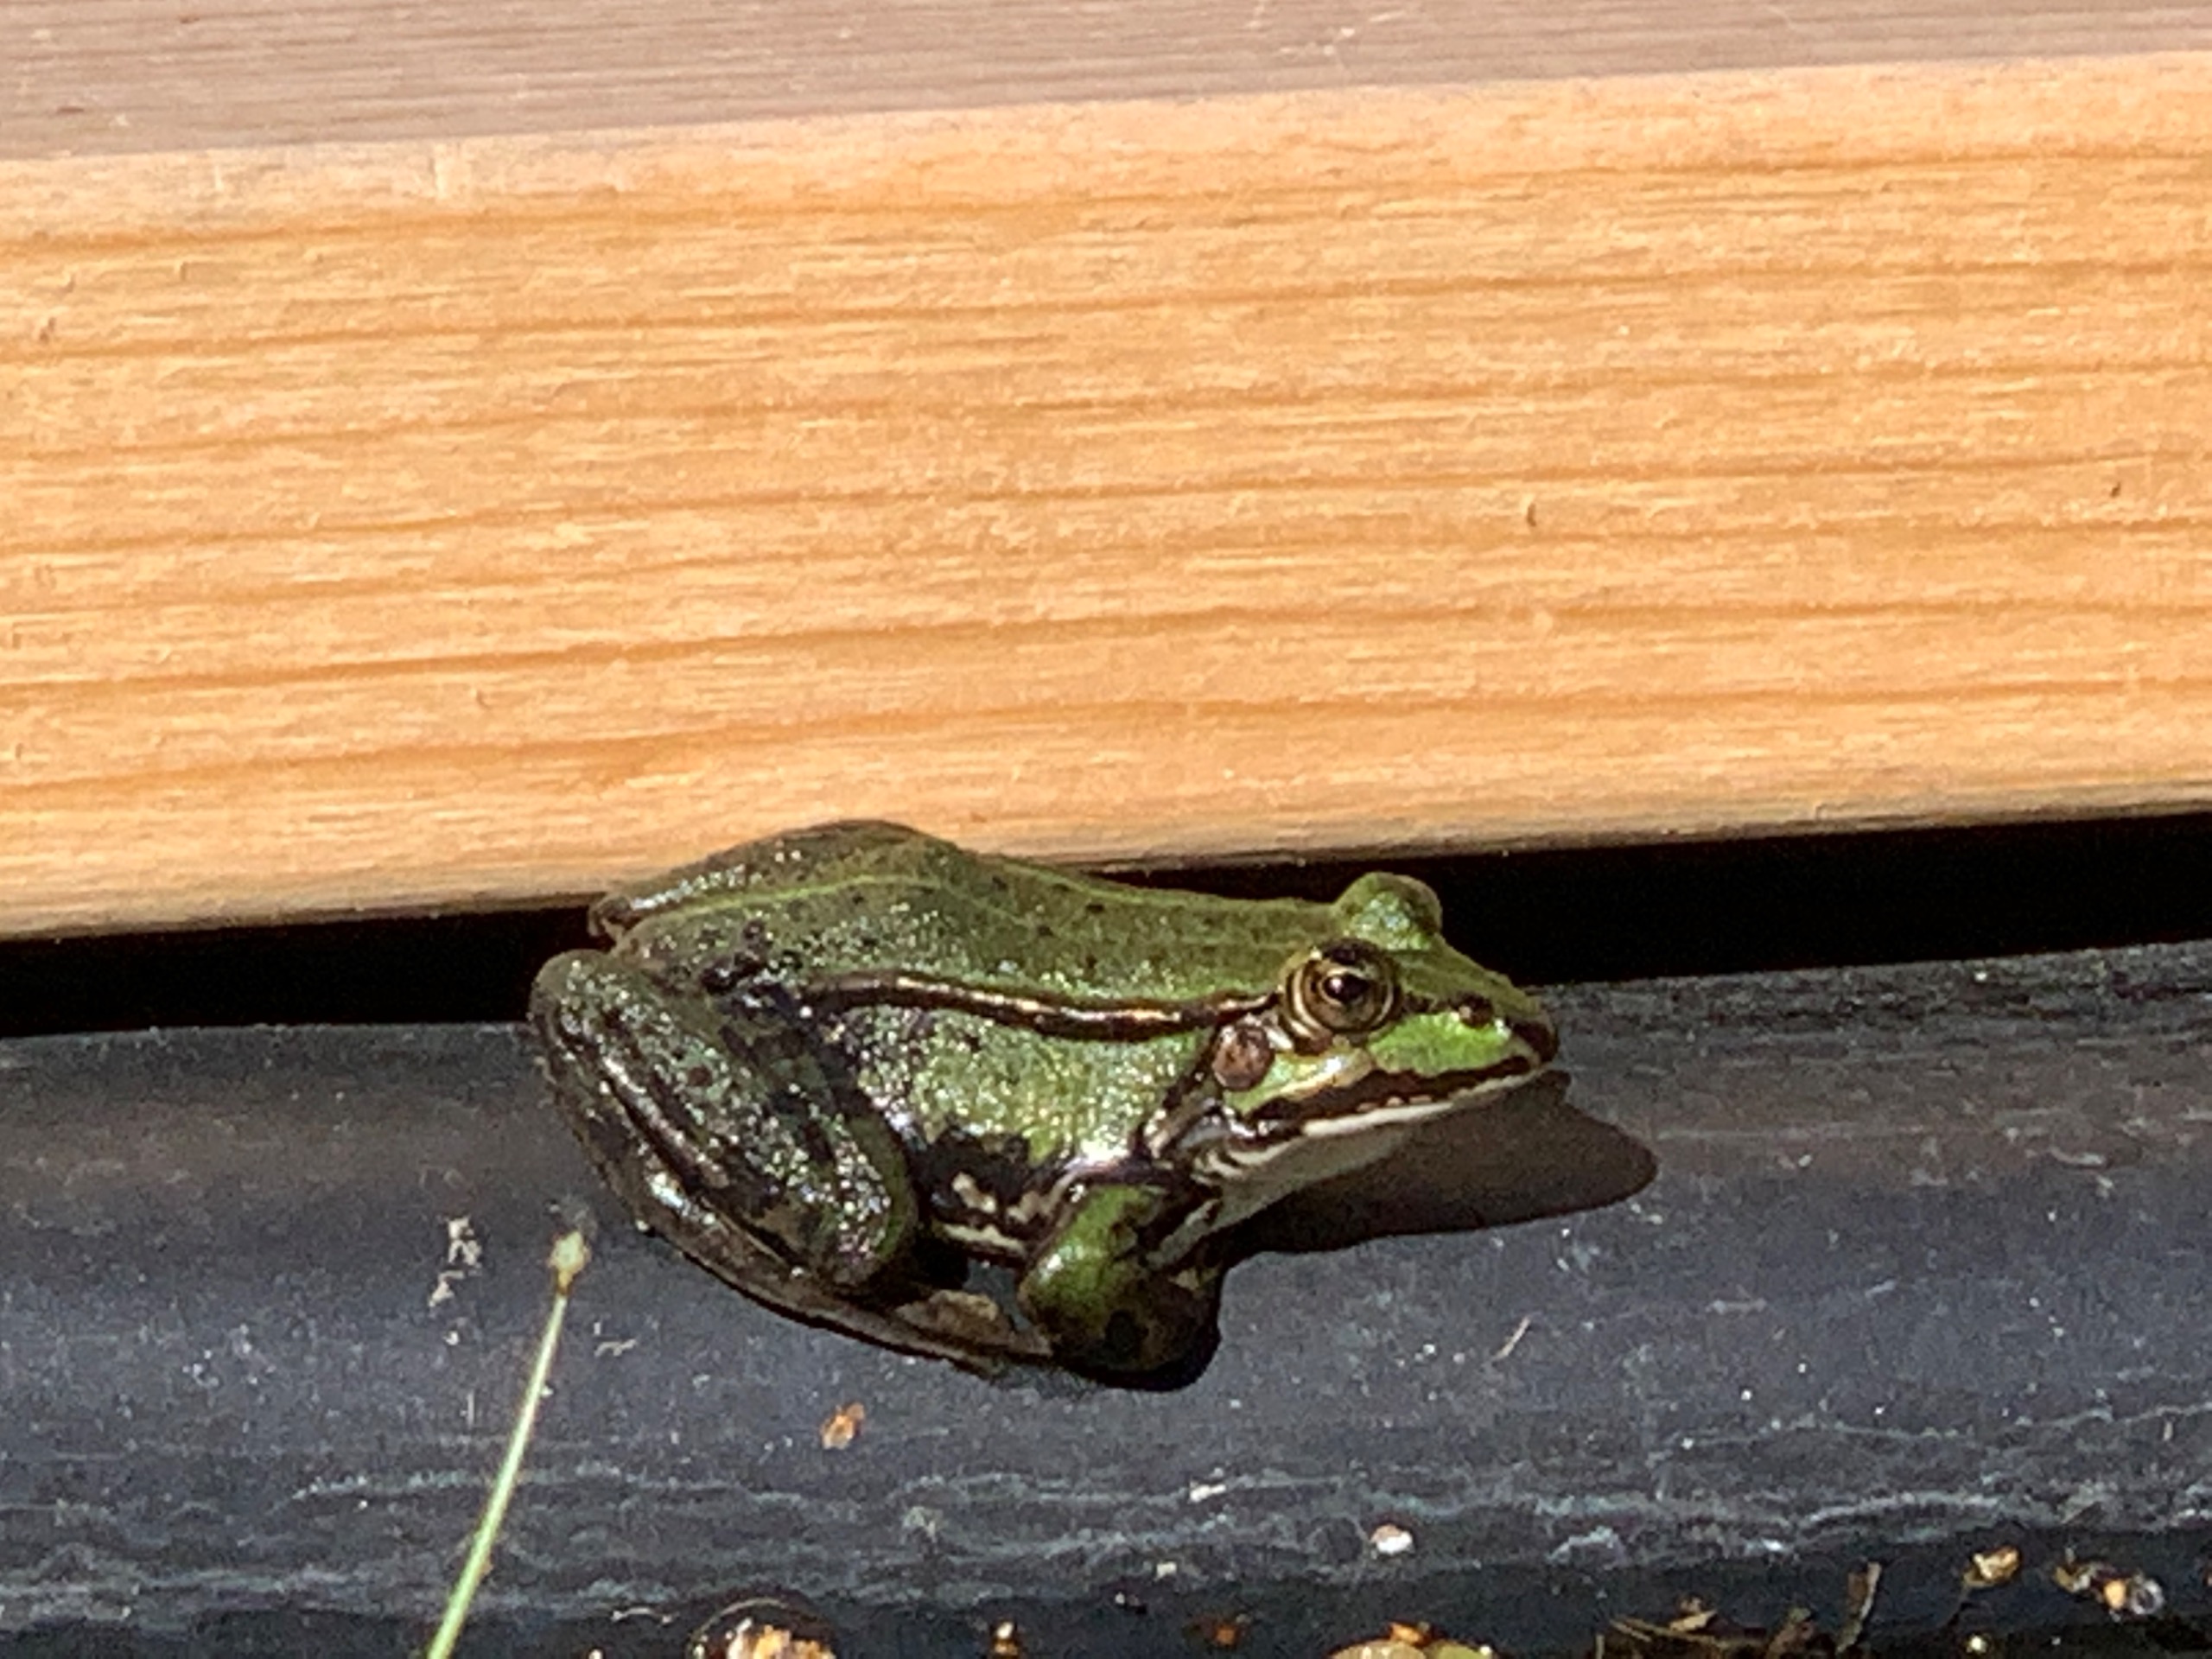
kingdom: Animalia
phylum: Chordata
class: Amphibia
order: Anura
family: Ranidae
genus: Pelophylax
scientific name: Pelophylax lessonae
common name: Grøn frø
